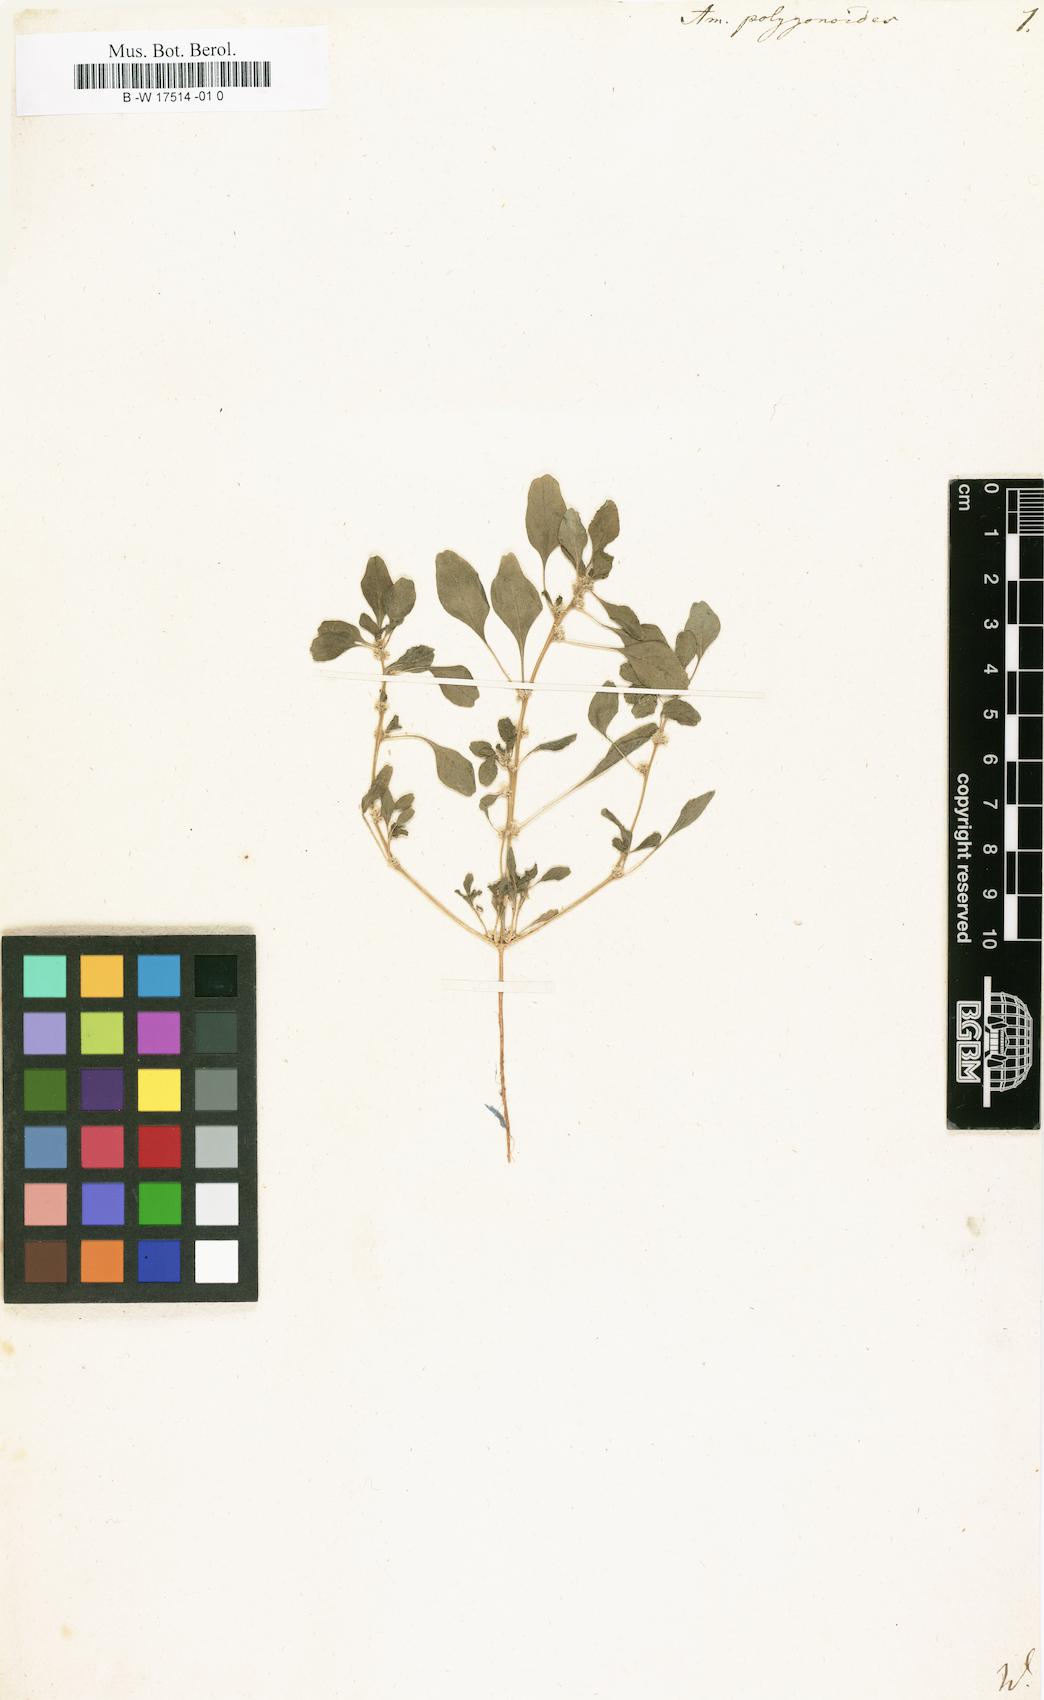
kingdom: Plantae
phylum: Tracheophyta
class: Magnoliopsida
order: Caryophyllales
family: Amaranthaceae
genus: Amaranthus
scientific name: Amaranthus polygonoides
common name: Tropical amaranth
